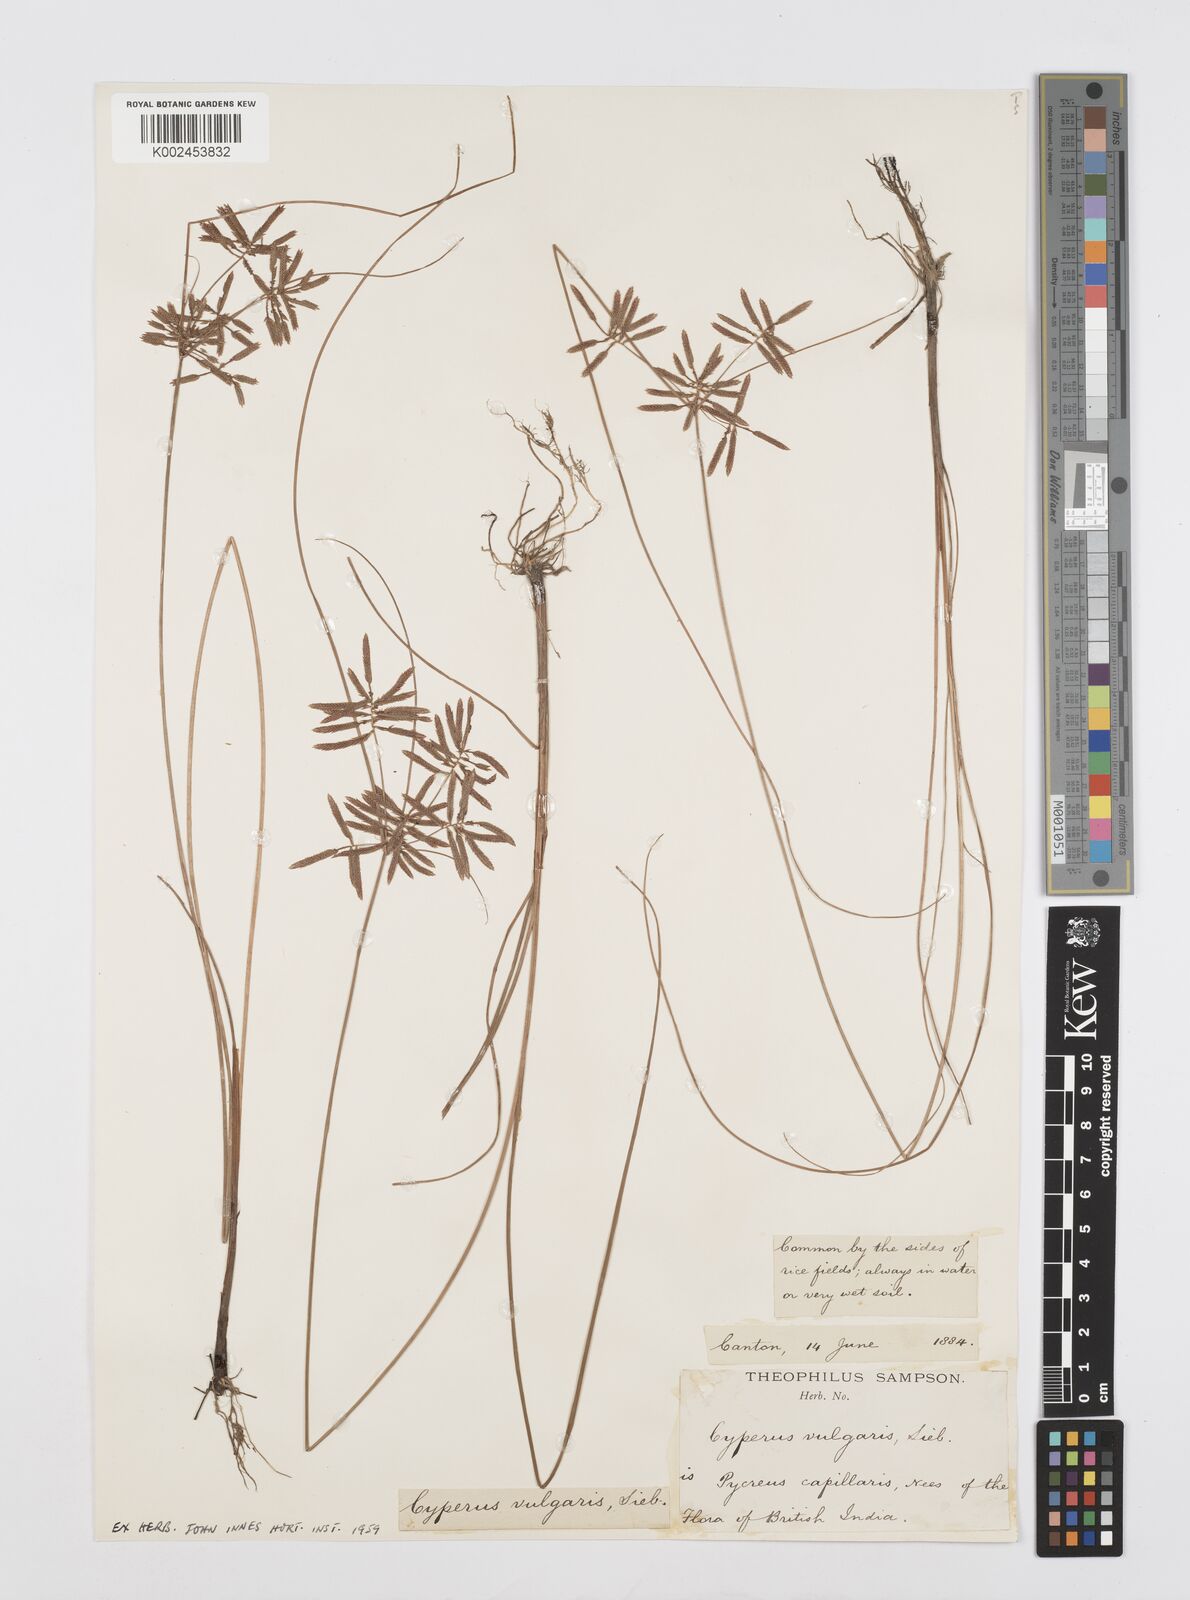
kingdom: Plantae
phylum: Tracheophyta
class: Liliopsida
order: Poales
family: Cyperaceae
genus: Cyperus
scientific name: Cyperus flavidus
